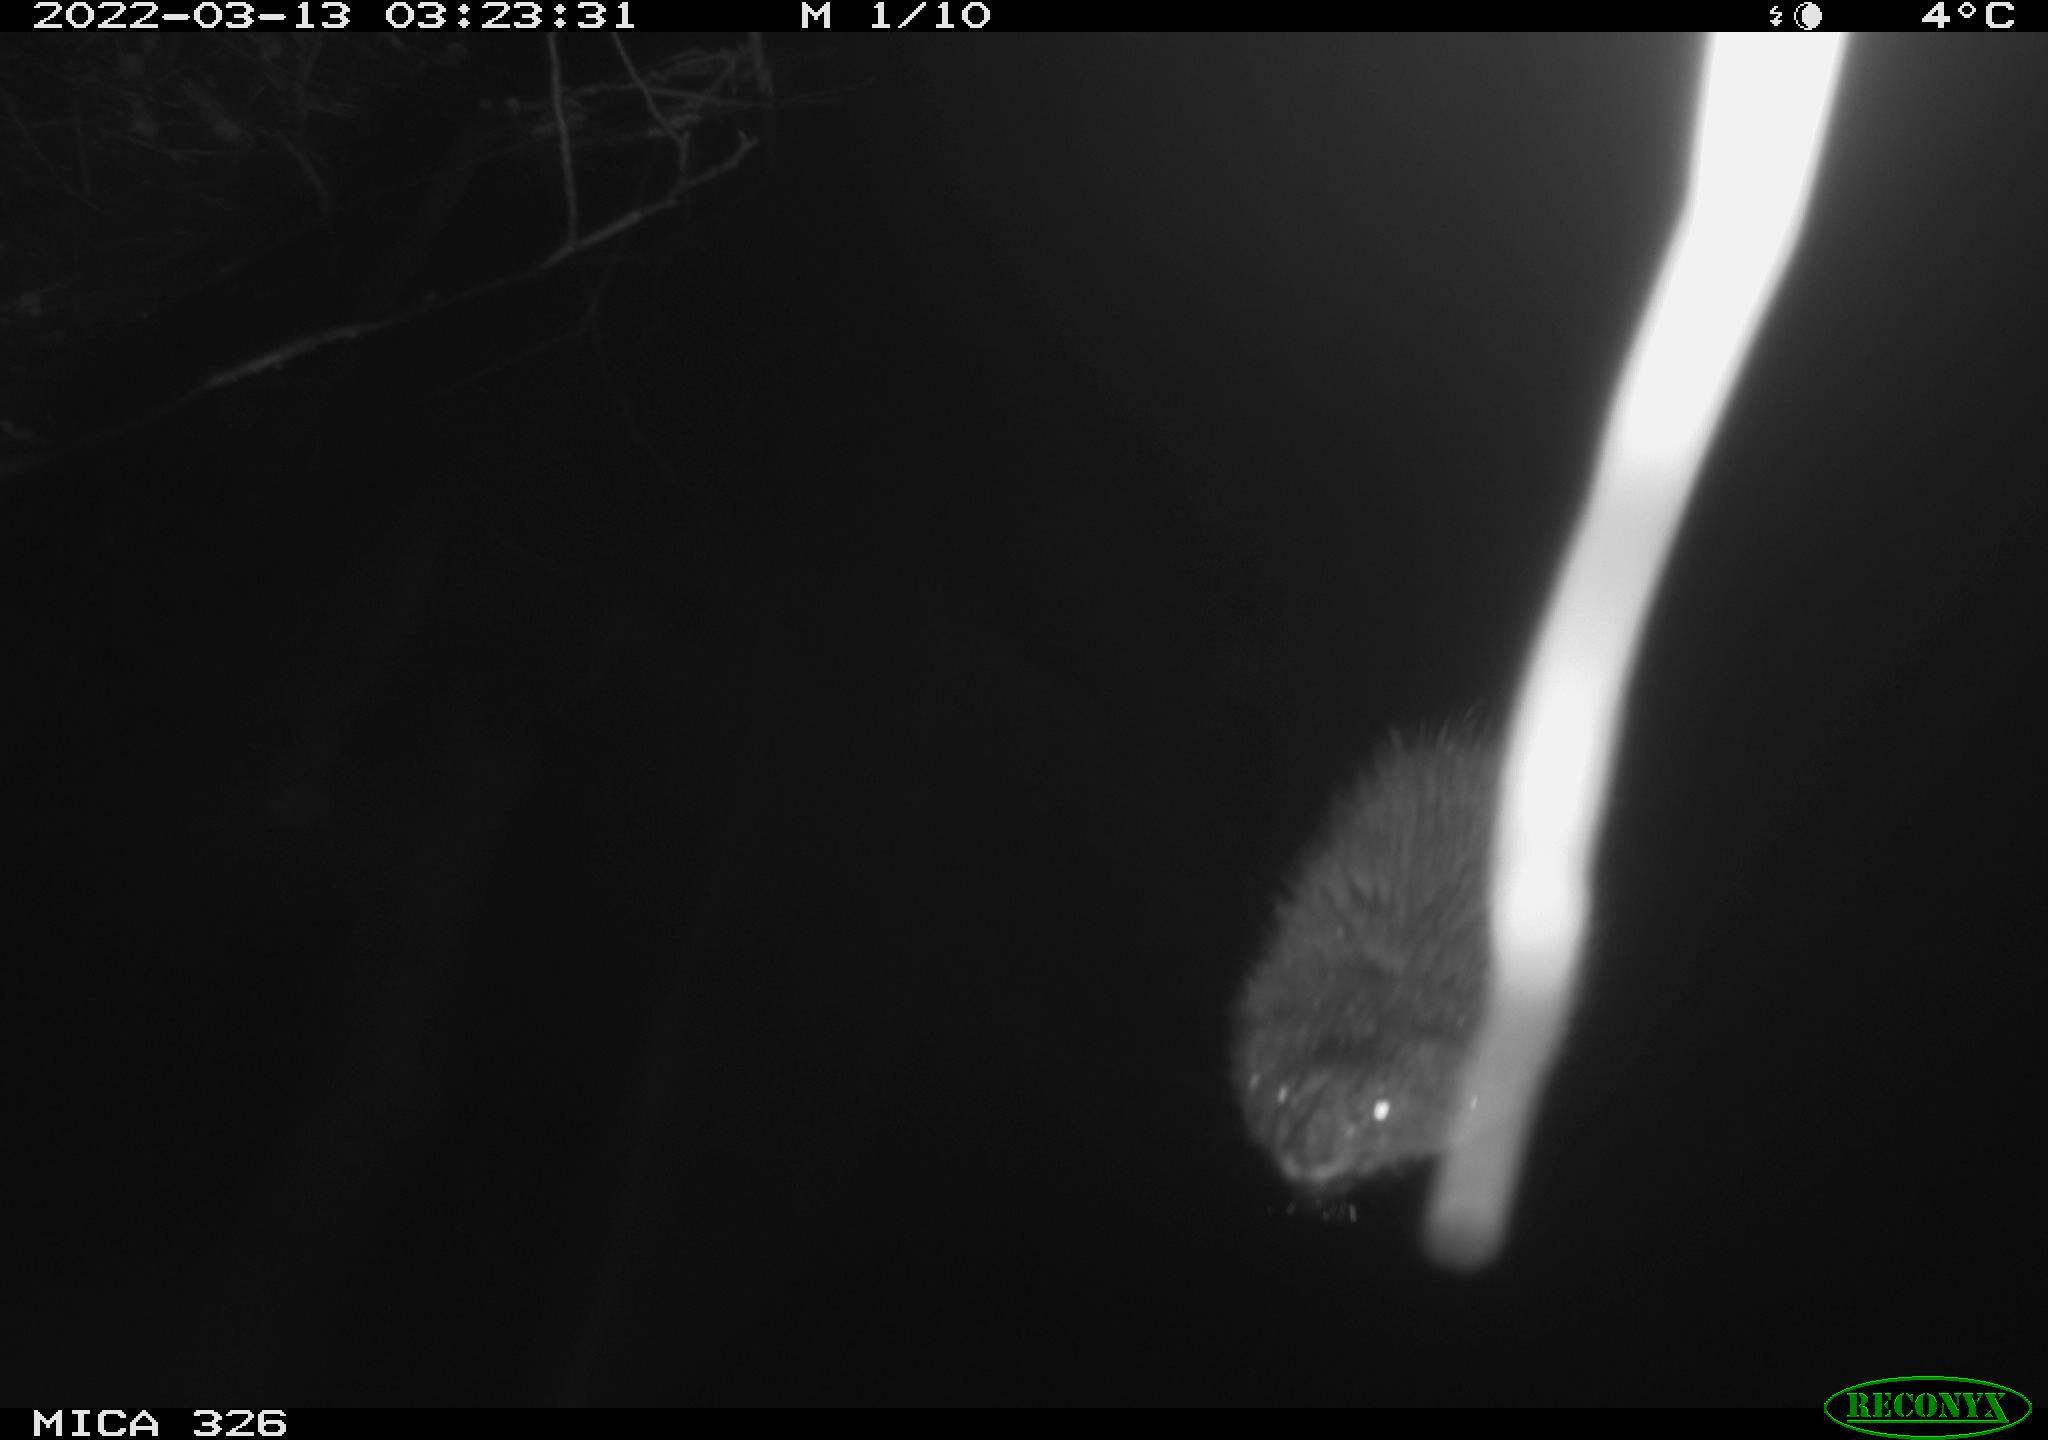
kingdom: Animalia
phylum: Chordata
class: Mammalia
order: Rodentia
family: Cricetidae
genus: Ondatra
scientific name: Ondatra zibethicus
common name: Muskrat
